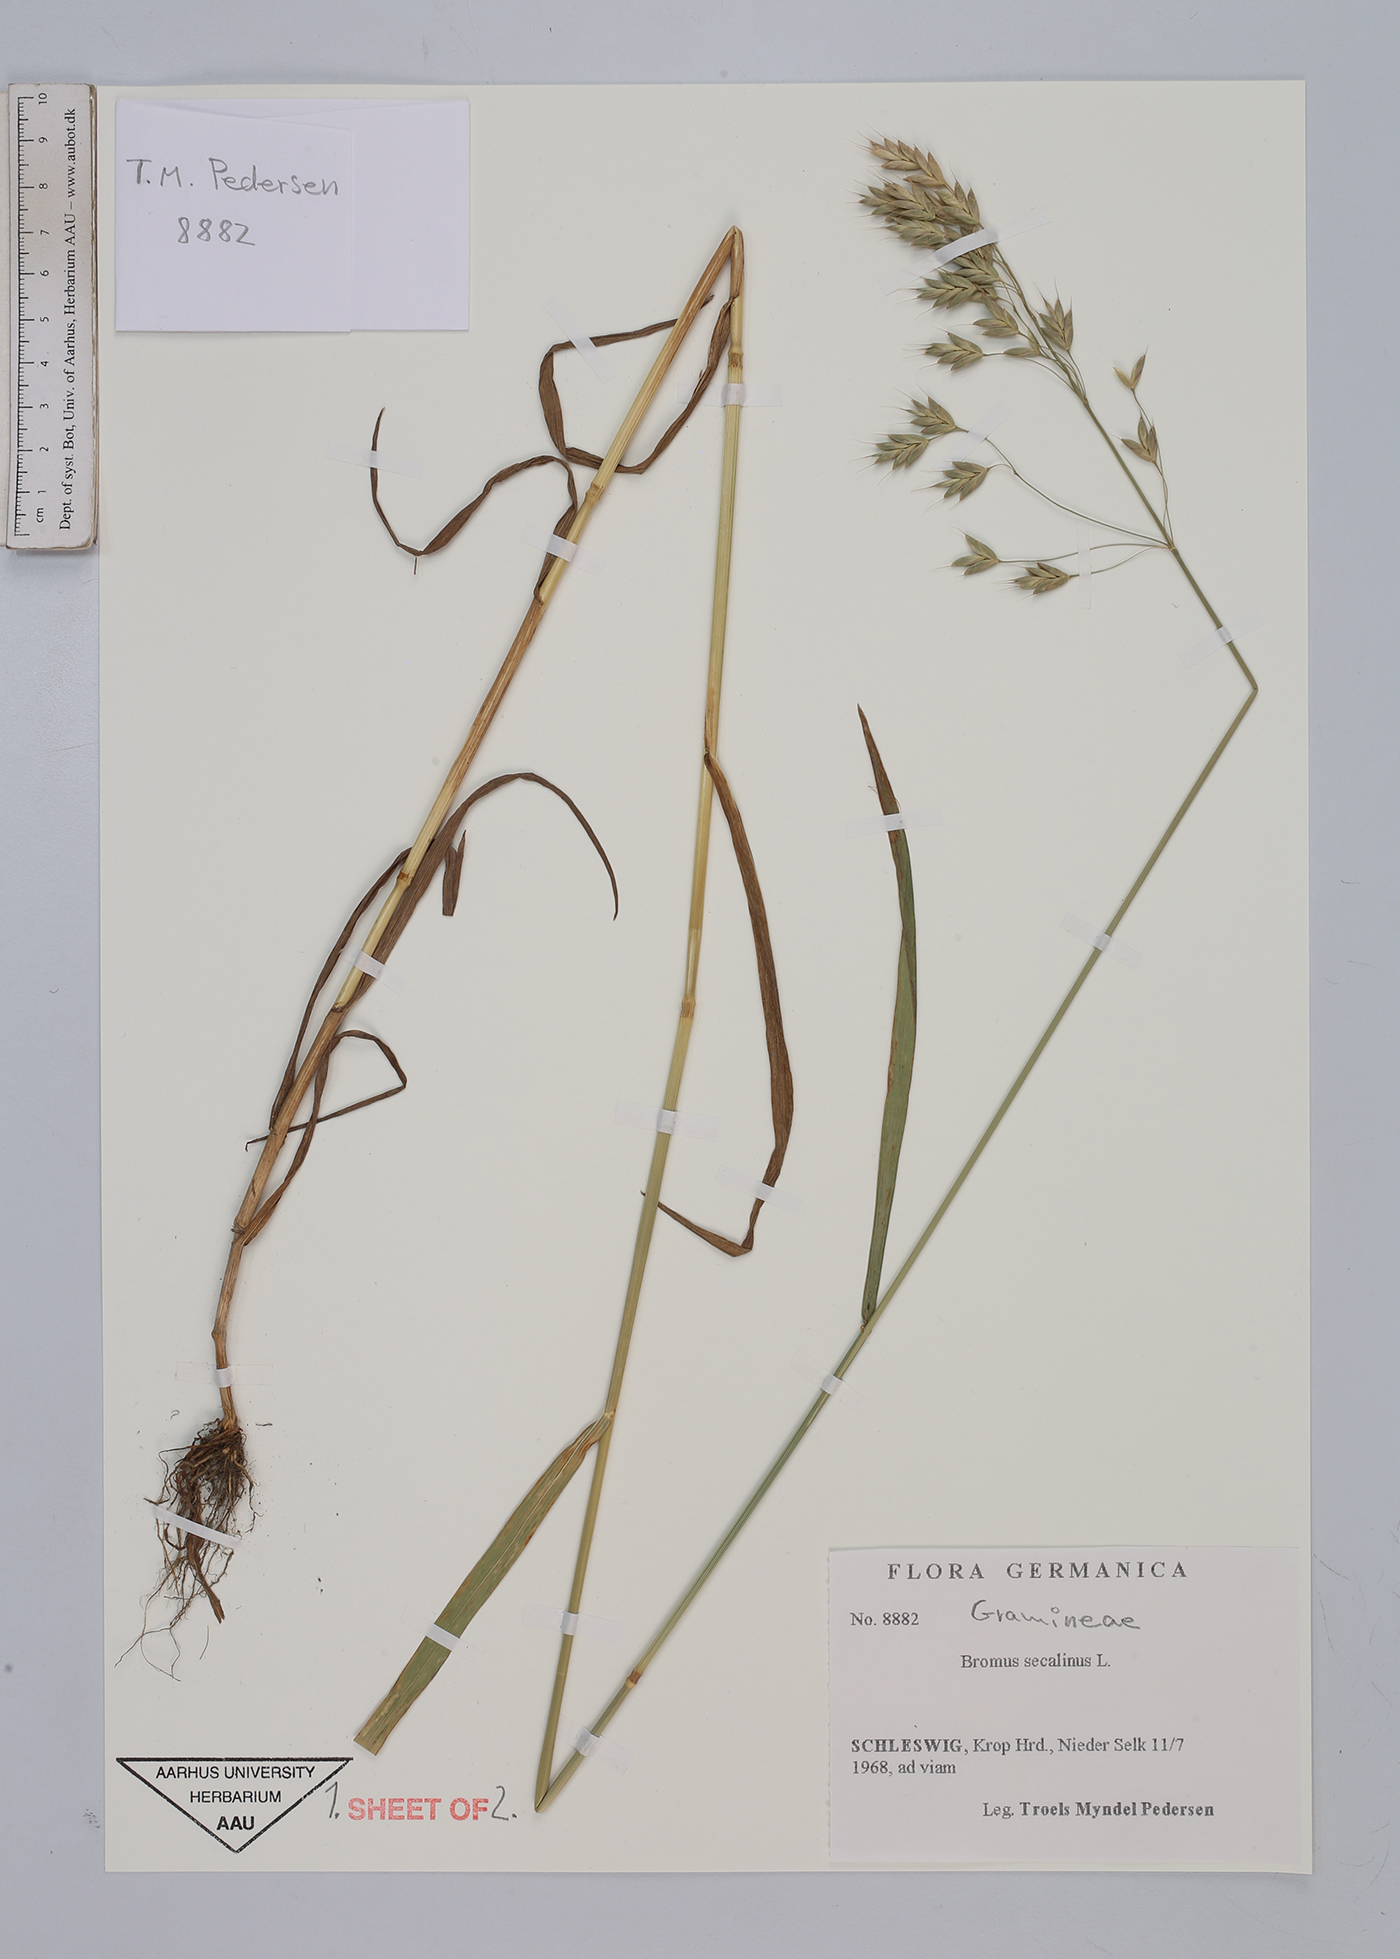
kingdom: Plantae
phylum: Tracheophyta
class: Liliopsida
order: Poales
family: Poaceae
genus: Bromus
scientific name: Bromus secalinus
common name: Rye brome
